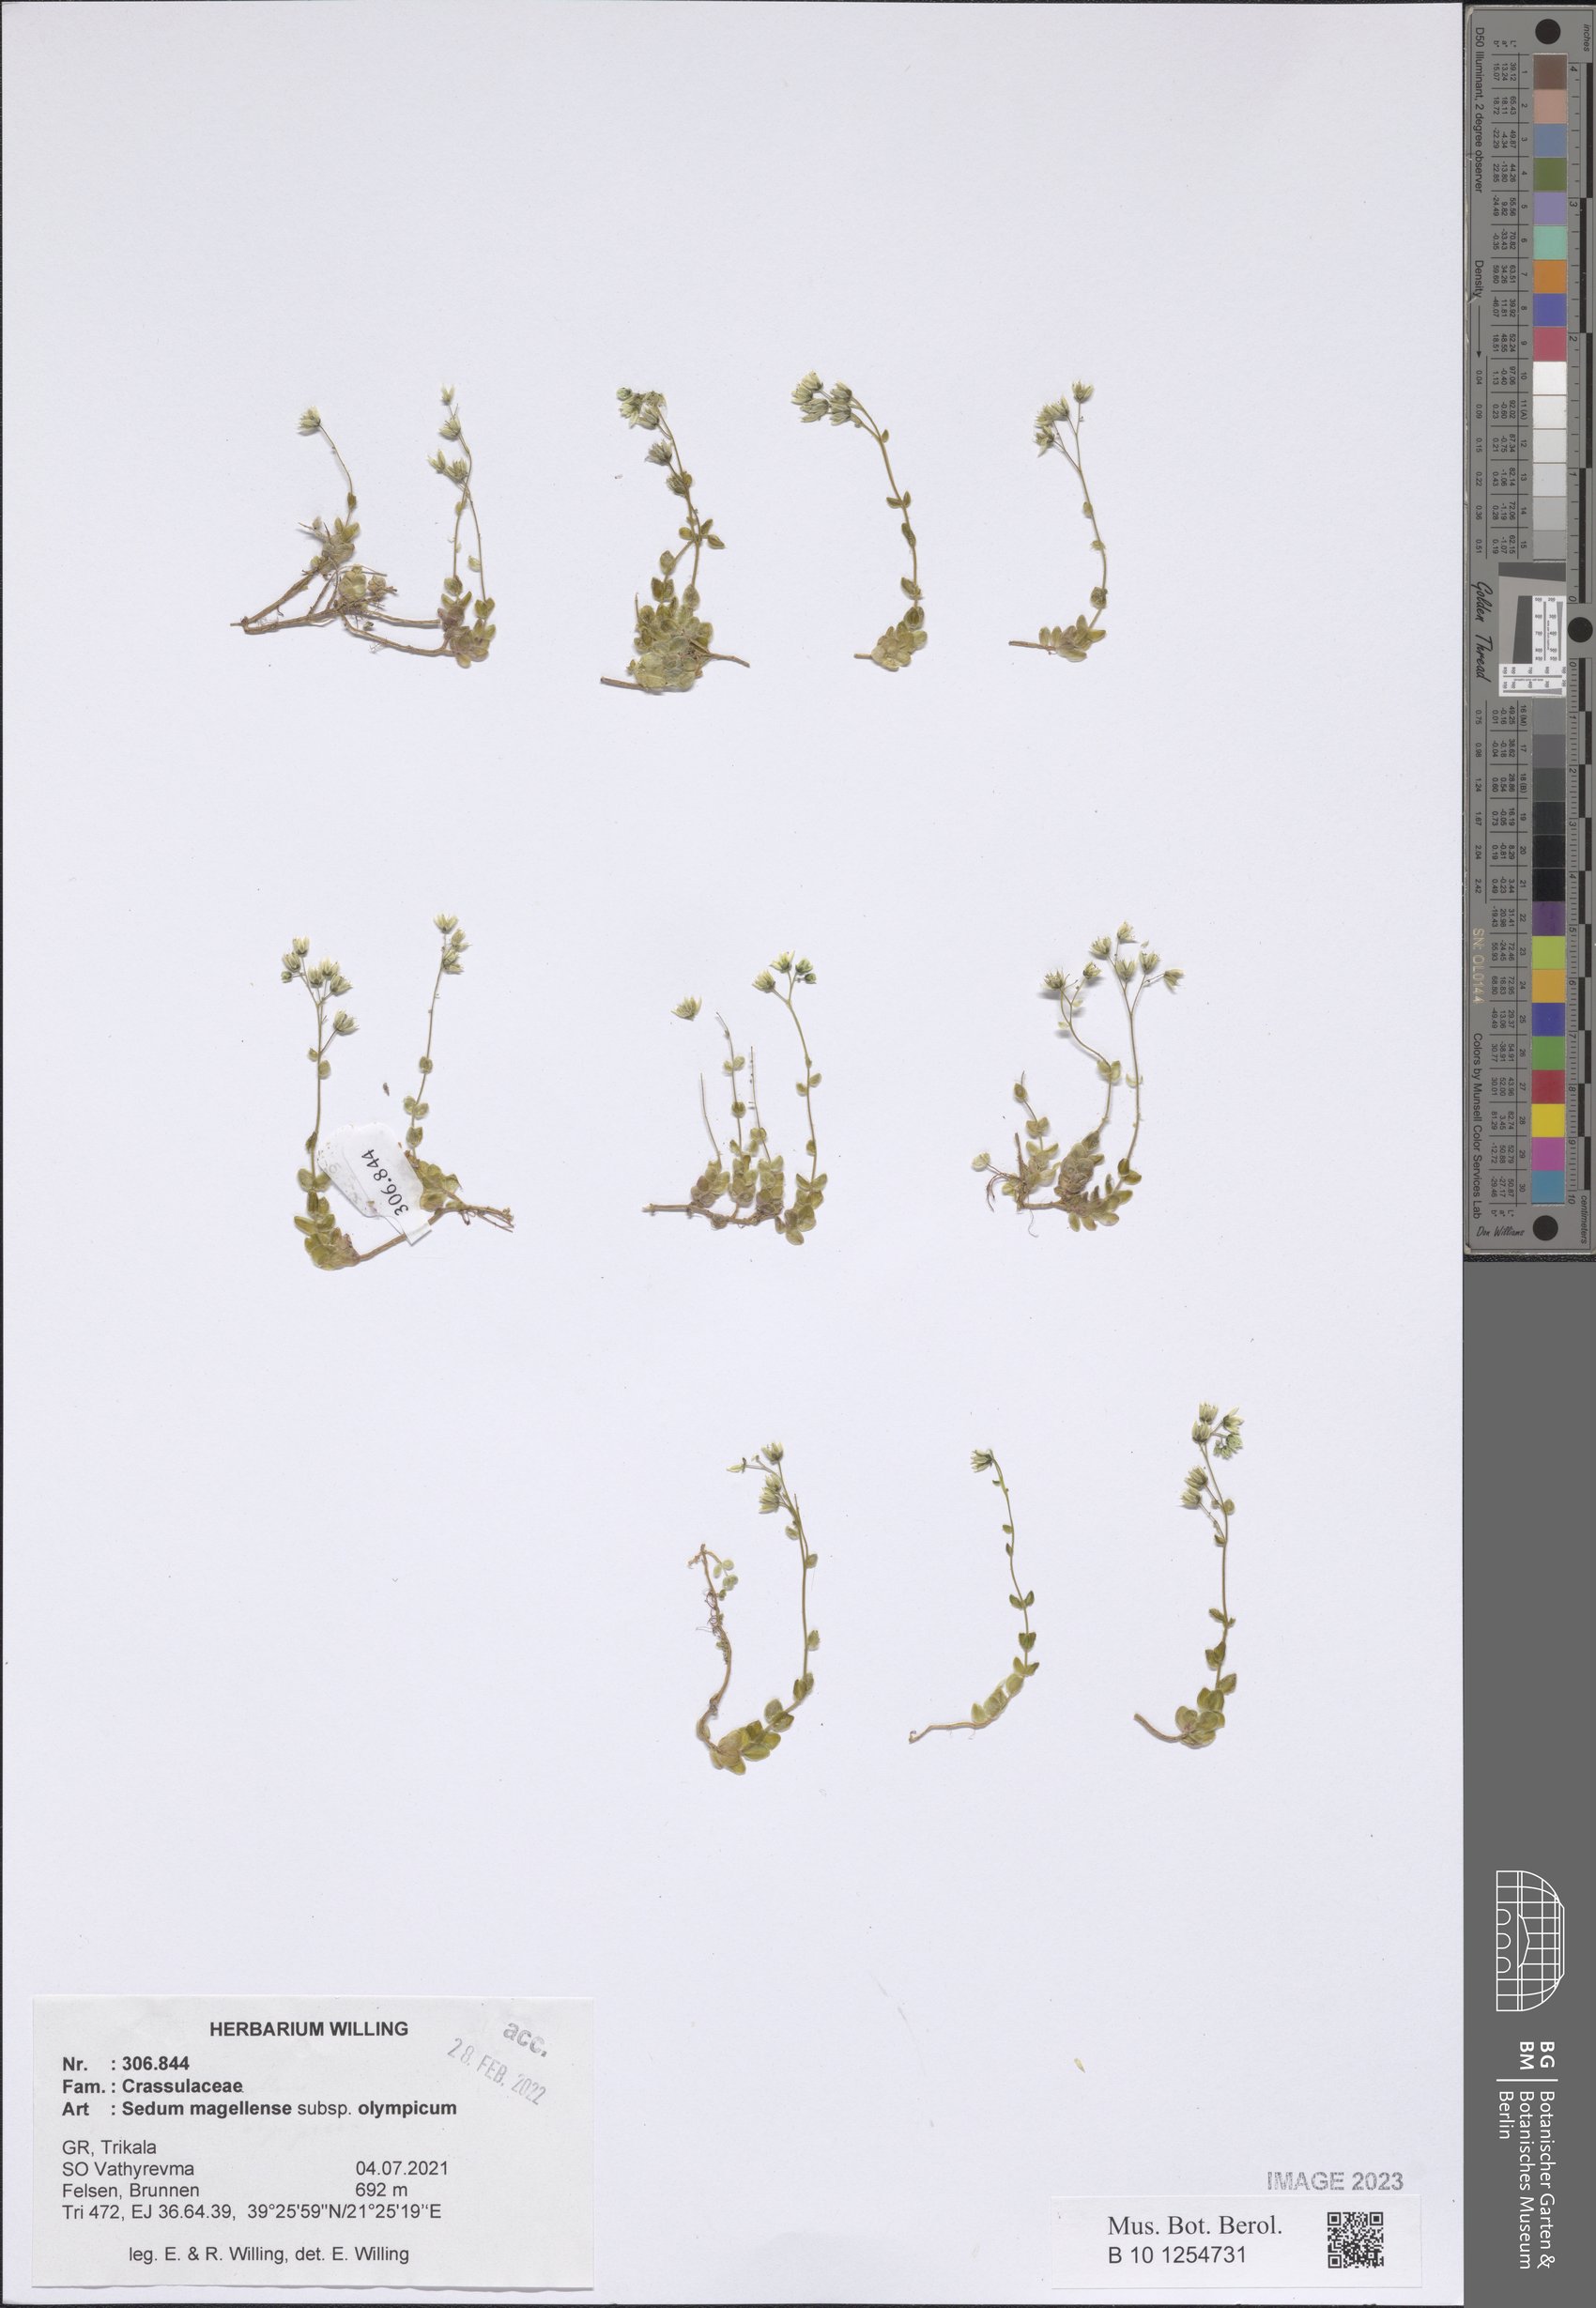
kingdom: Plantae
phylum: Tracheophyta
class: Magnoliopsida
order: Saxifragales
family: Crassulaceae
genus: Sedum
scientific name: Sedum magellense
